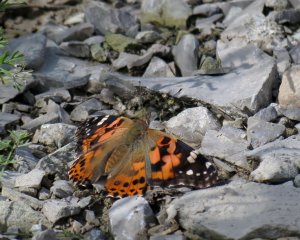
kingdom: Animalia
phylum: Arthropoda
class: Insecta
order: Lepidoptera
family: Nymphalidae
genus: Vanessa
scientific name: Vanessa cardui
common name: Painted Lady
